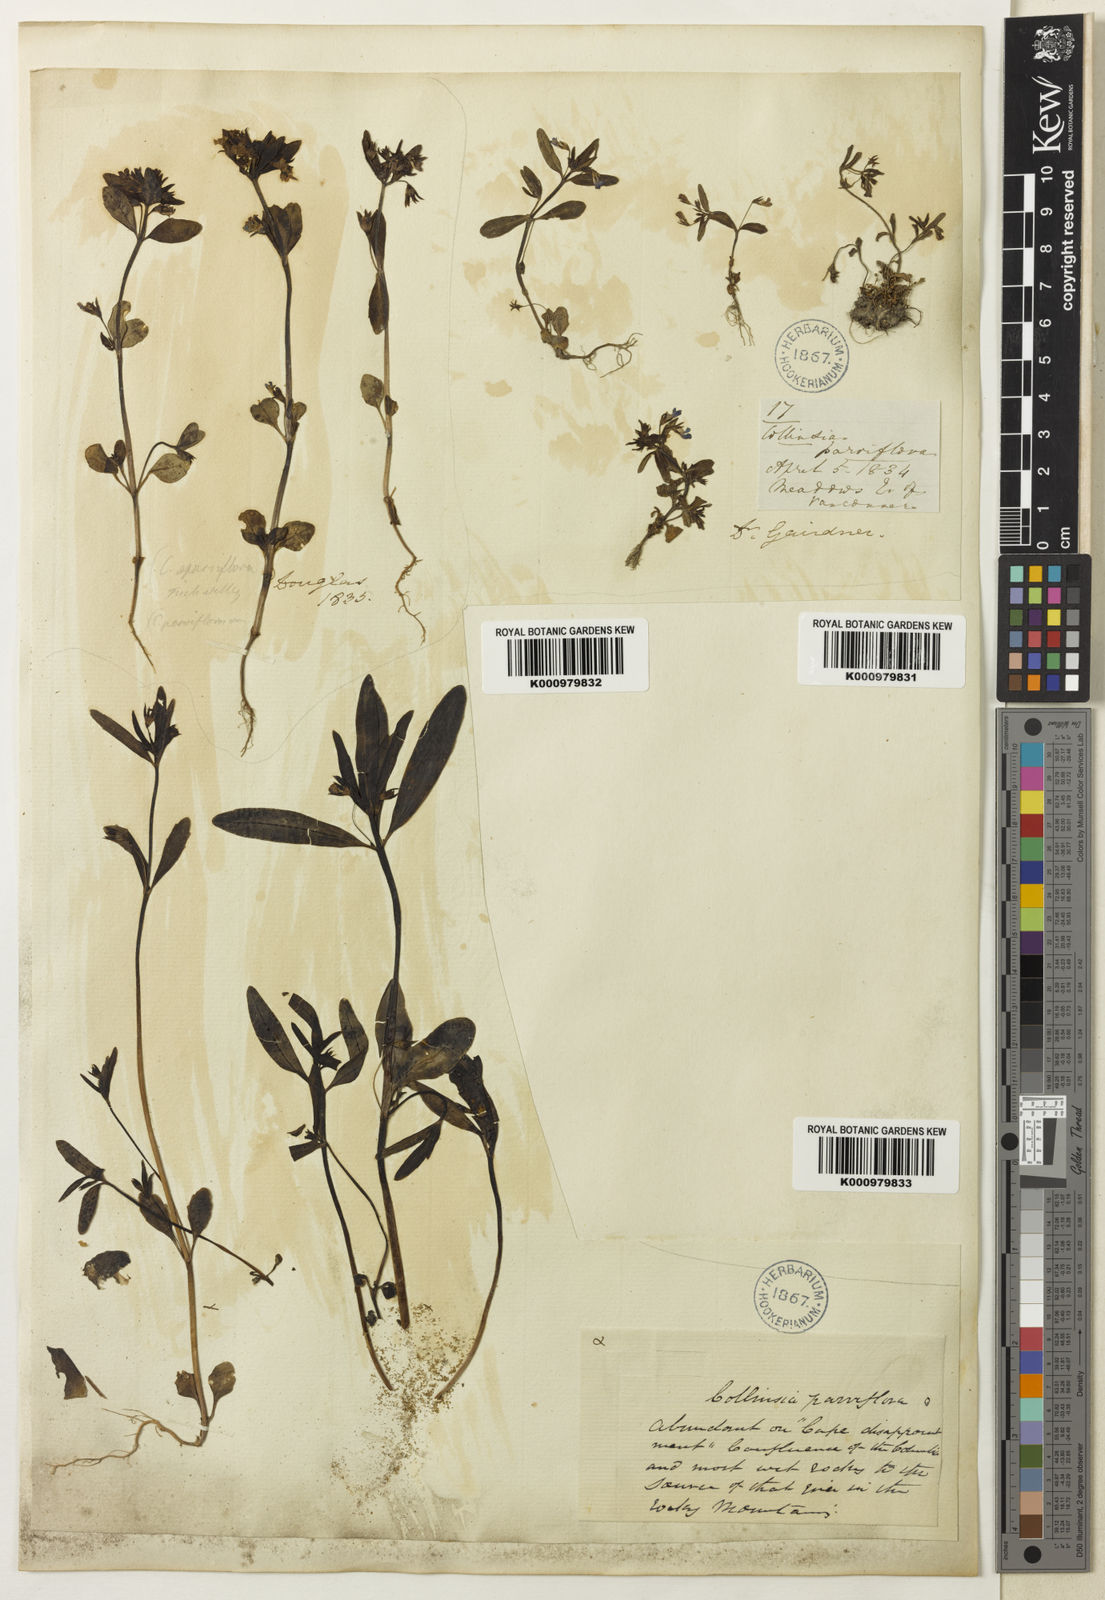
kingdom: Plantae
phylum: Tracheophyta
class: Magnoliopsida
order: Lamiales
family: Plantaginaceae
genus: Collinsia
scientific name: Collinsia parviflora
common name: Blue-lips
